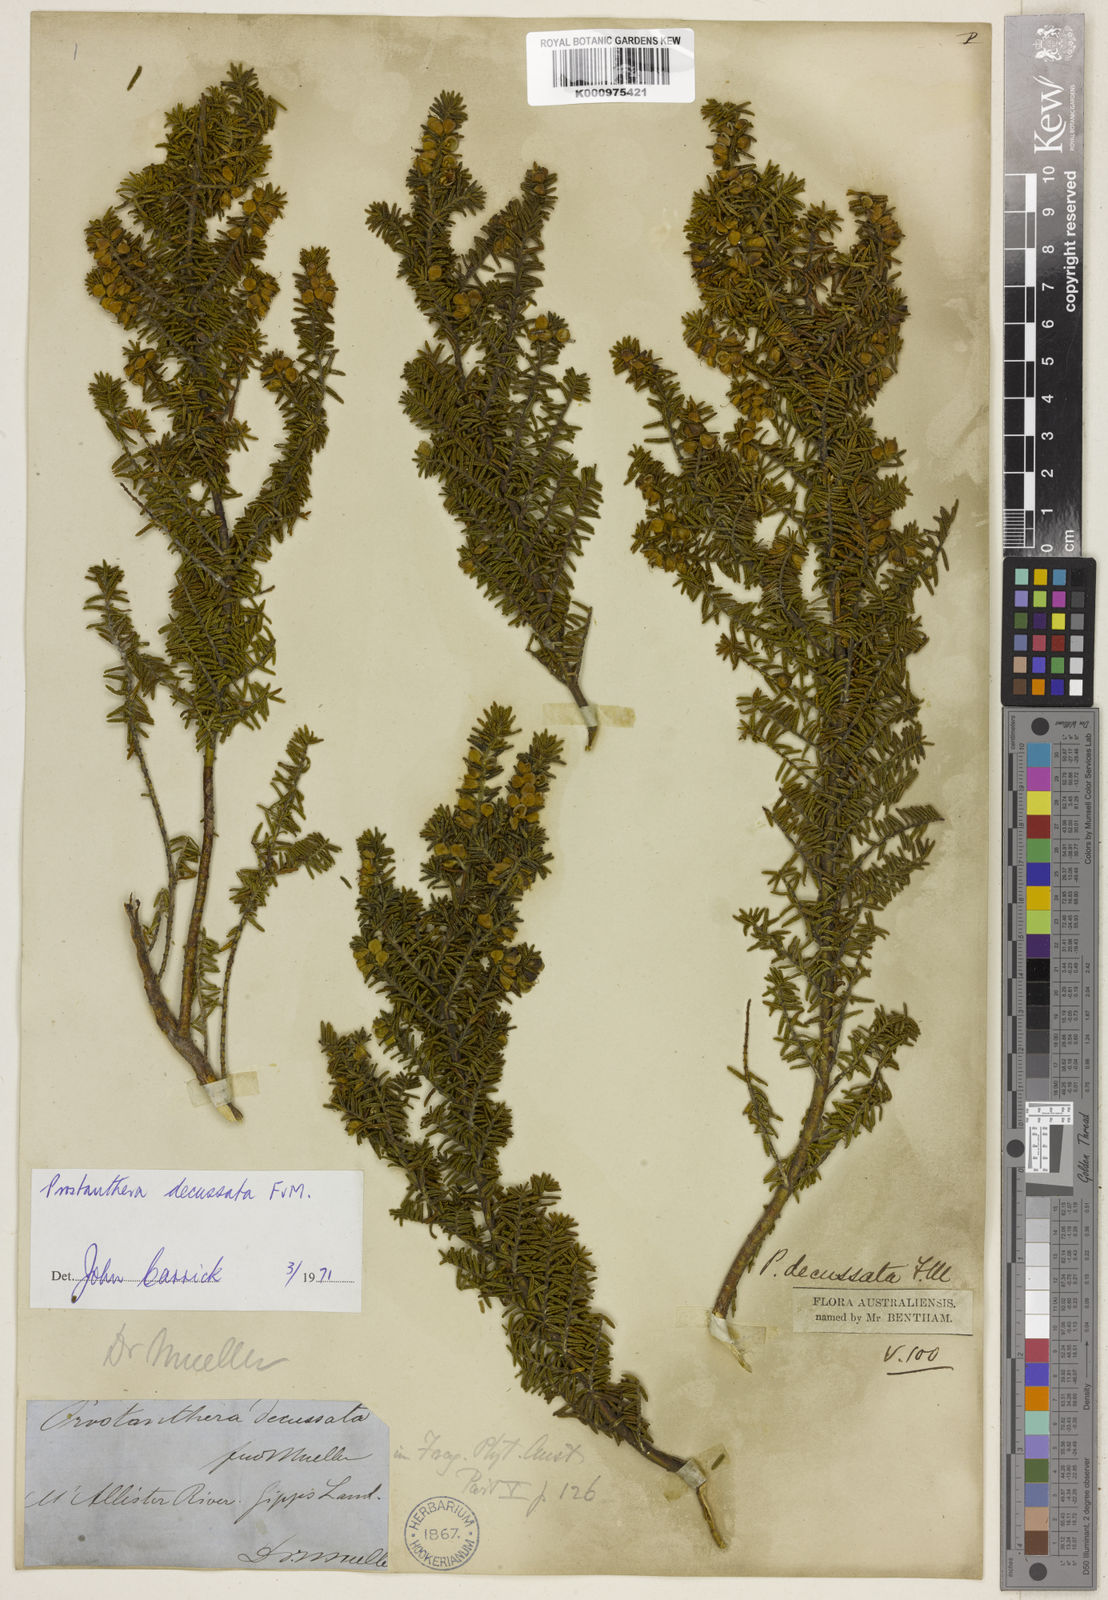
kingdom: Plantae
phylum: Tracheophyta
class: Magnoliopsida
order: Lamiales
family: Lamiaceae
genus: Prostanthera
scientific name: Prostanthera decussata
